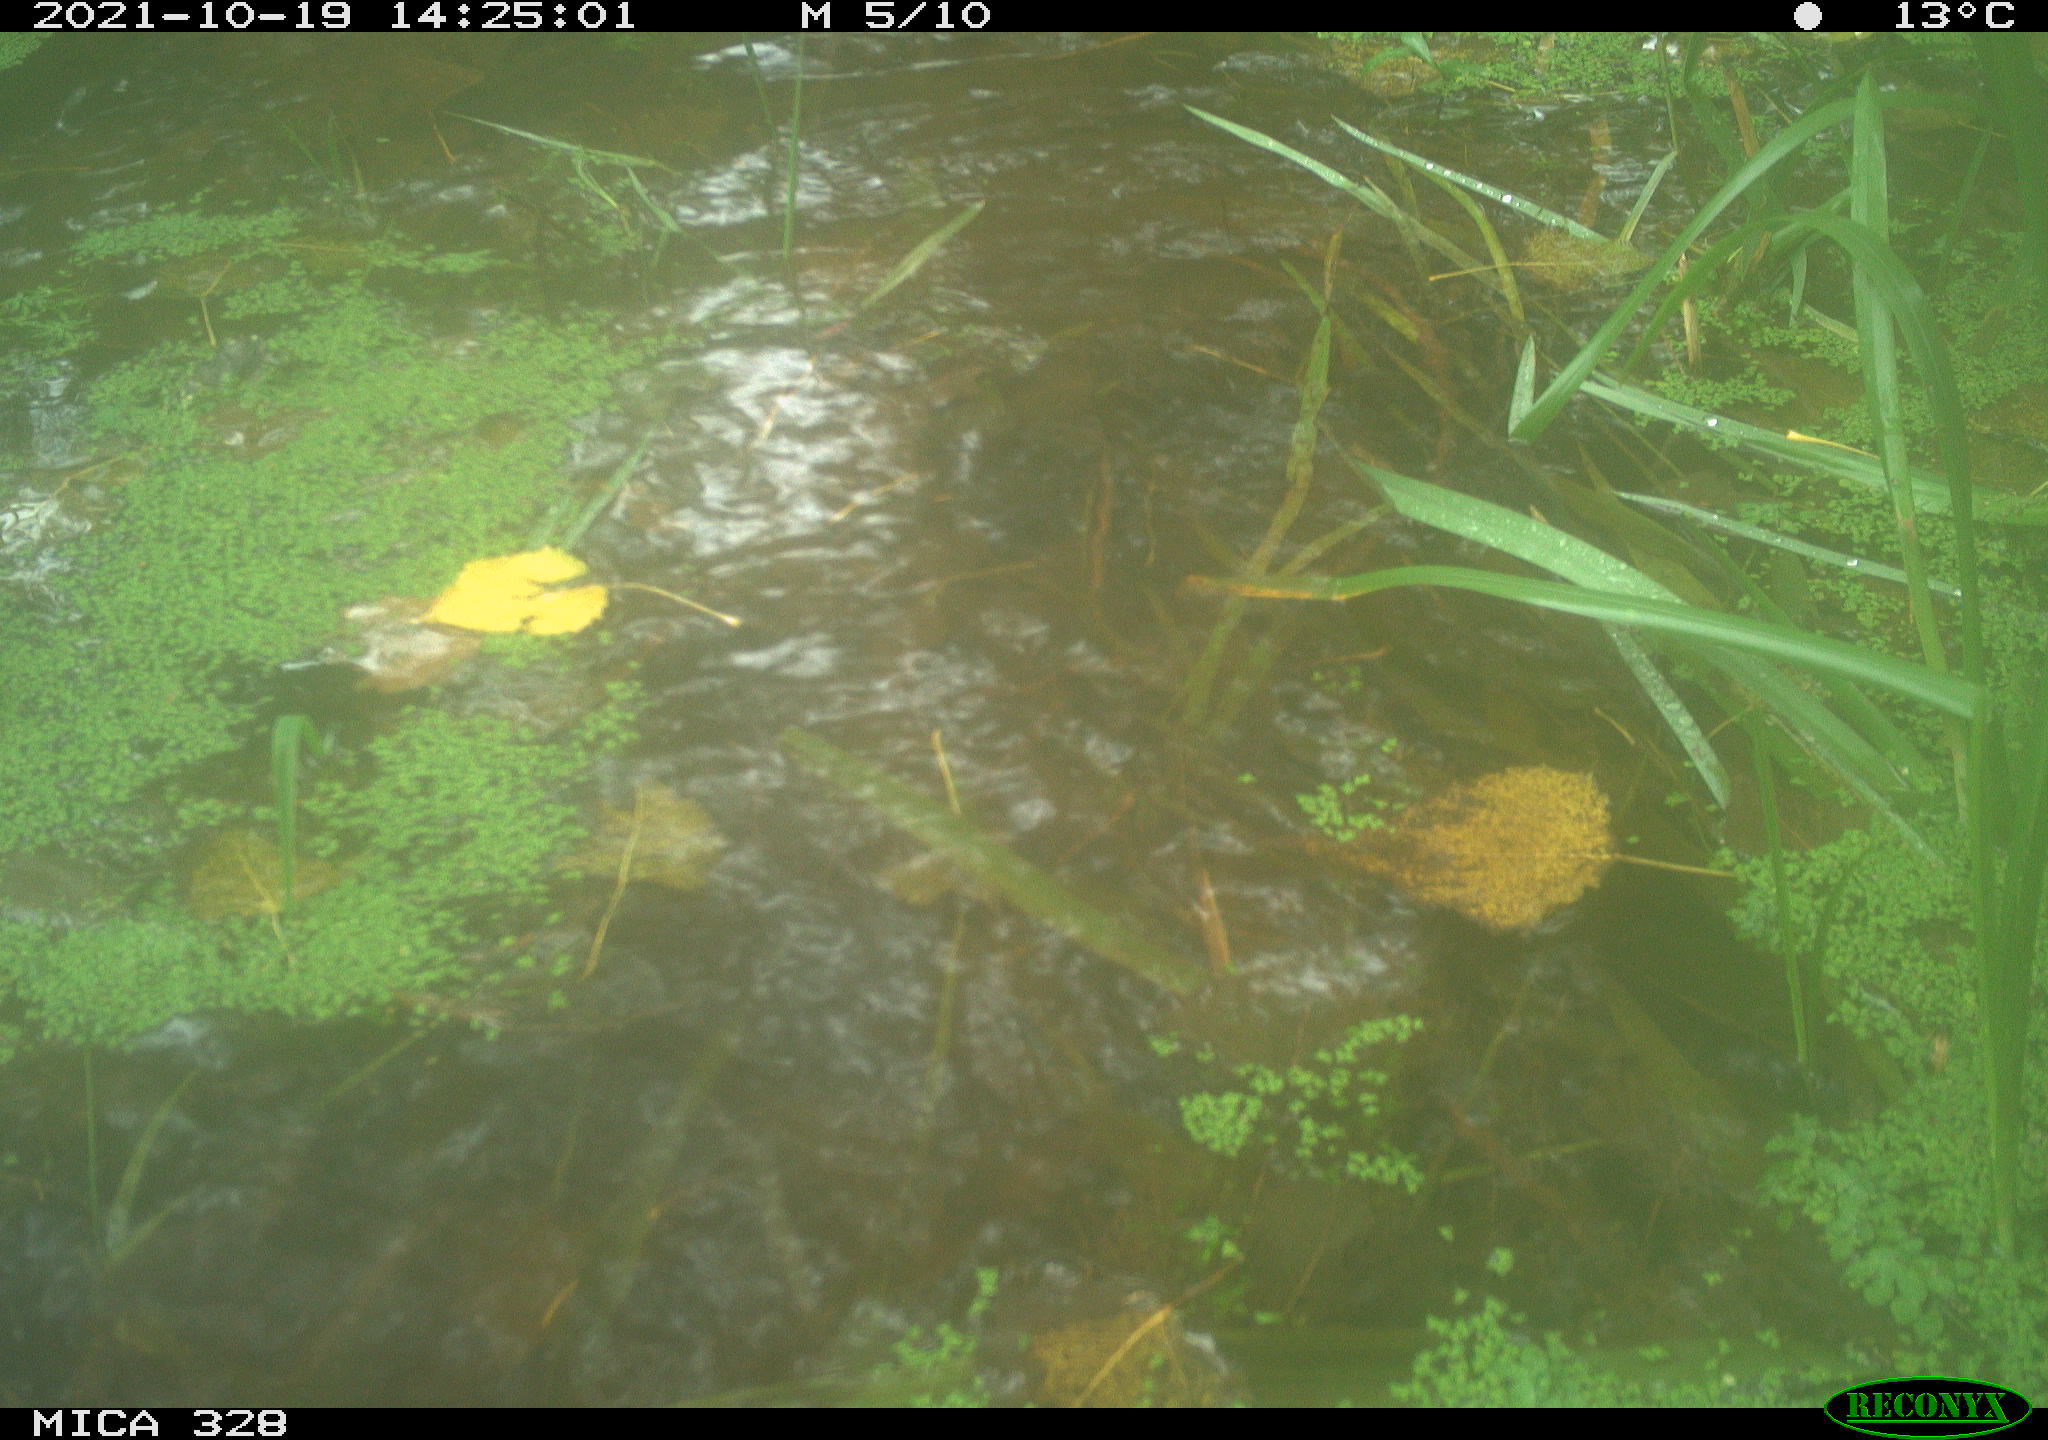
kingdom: Animalia
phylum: Chordata
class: Mammalia
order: Rodentia
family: Cricetidae
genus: Ondatra
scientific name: Ondatra zibethicus
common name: Muskrat
